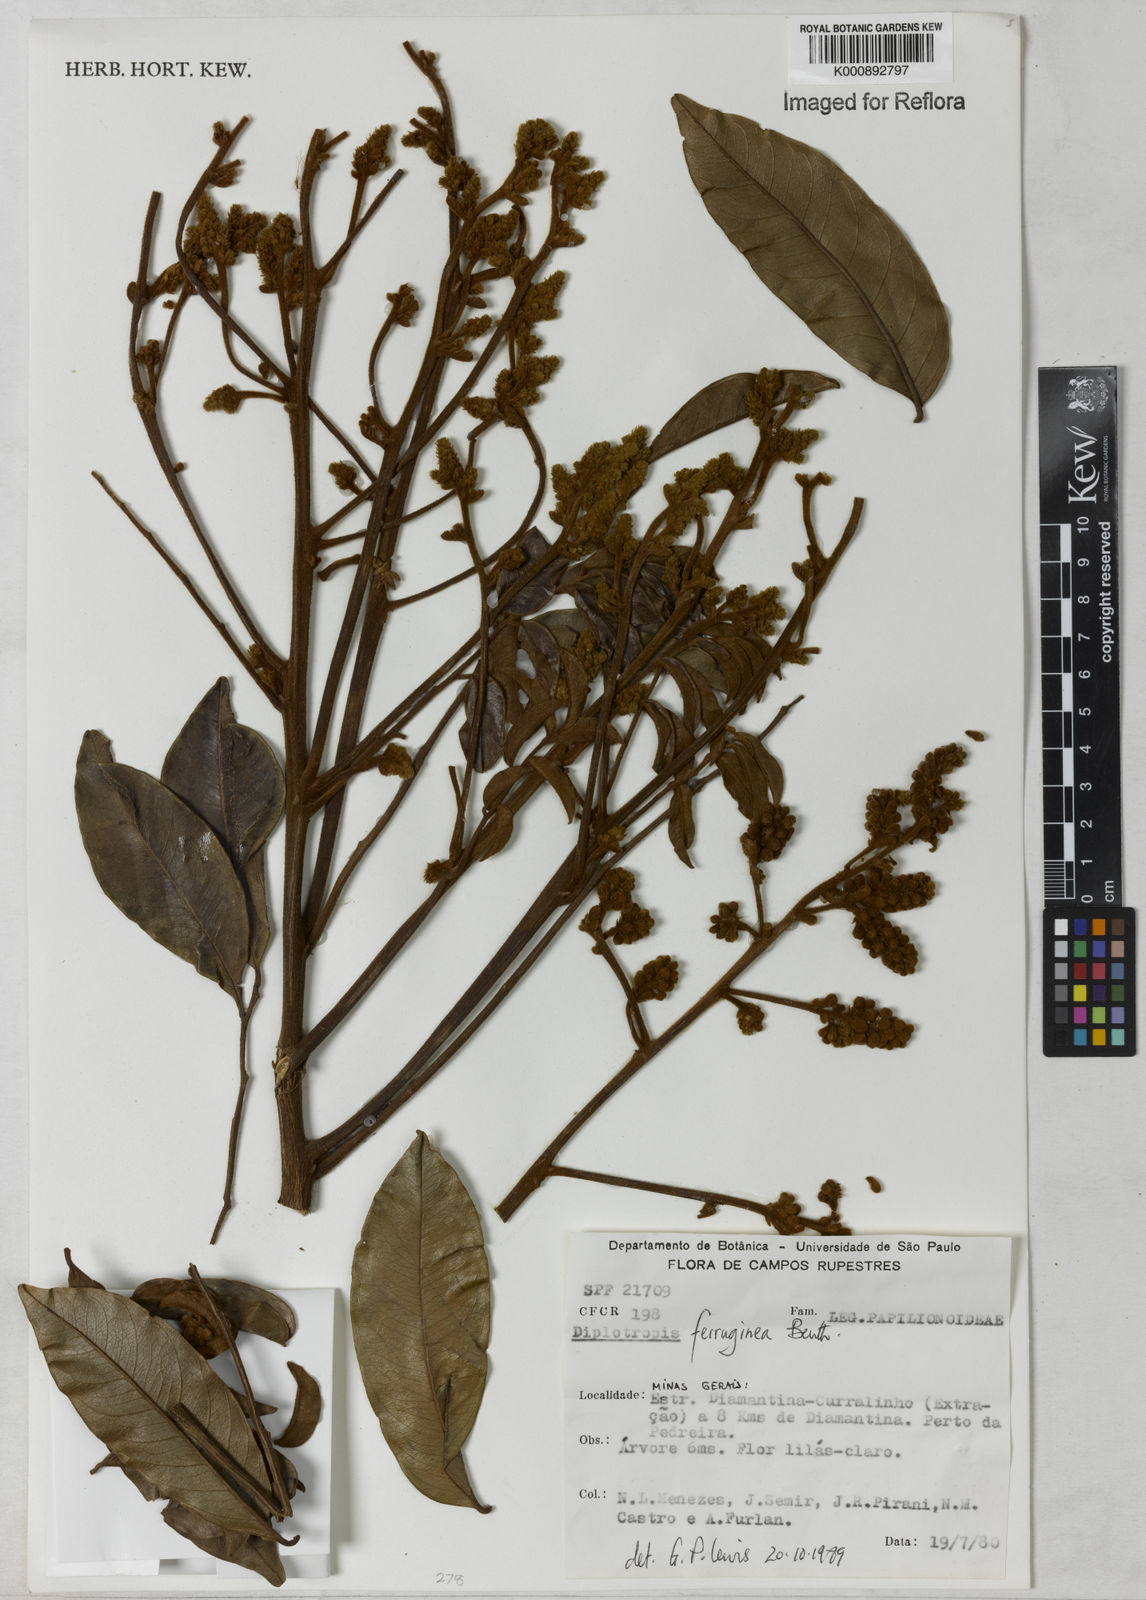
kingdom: Plantae
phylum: Tracheophyta
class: Magnoliopsida
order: Fabales
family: Fabaceae
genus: Diplotropis
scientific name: Diplotropis ferruginea
